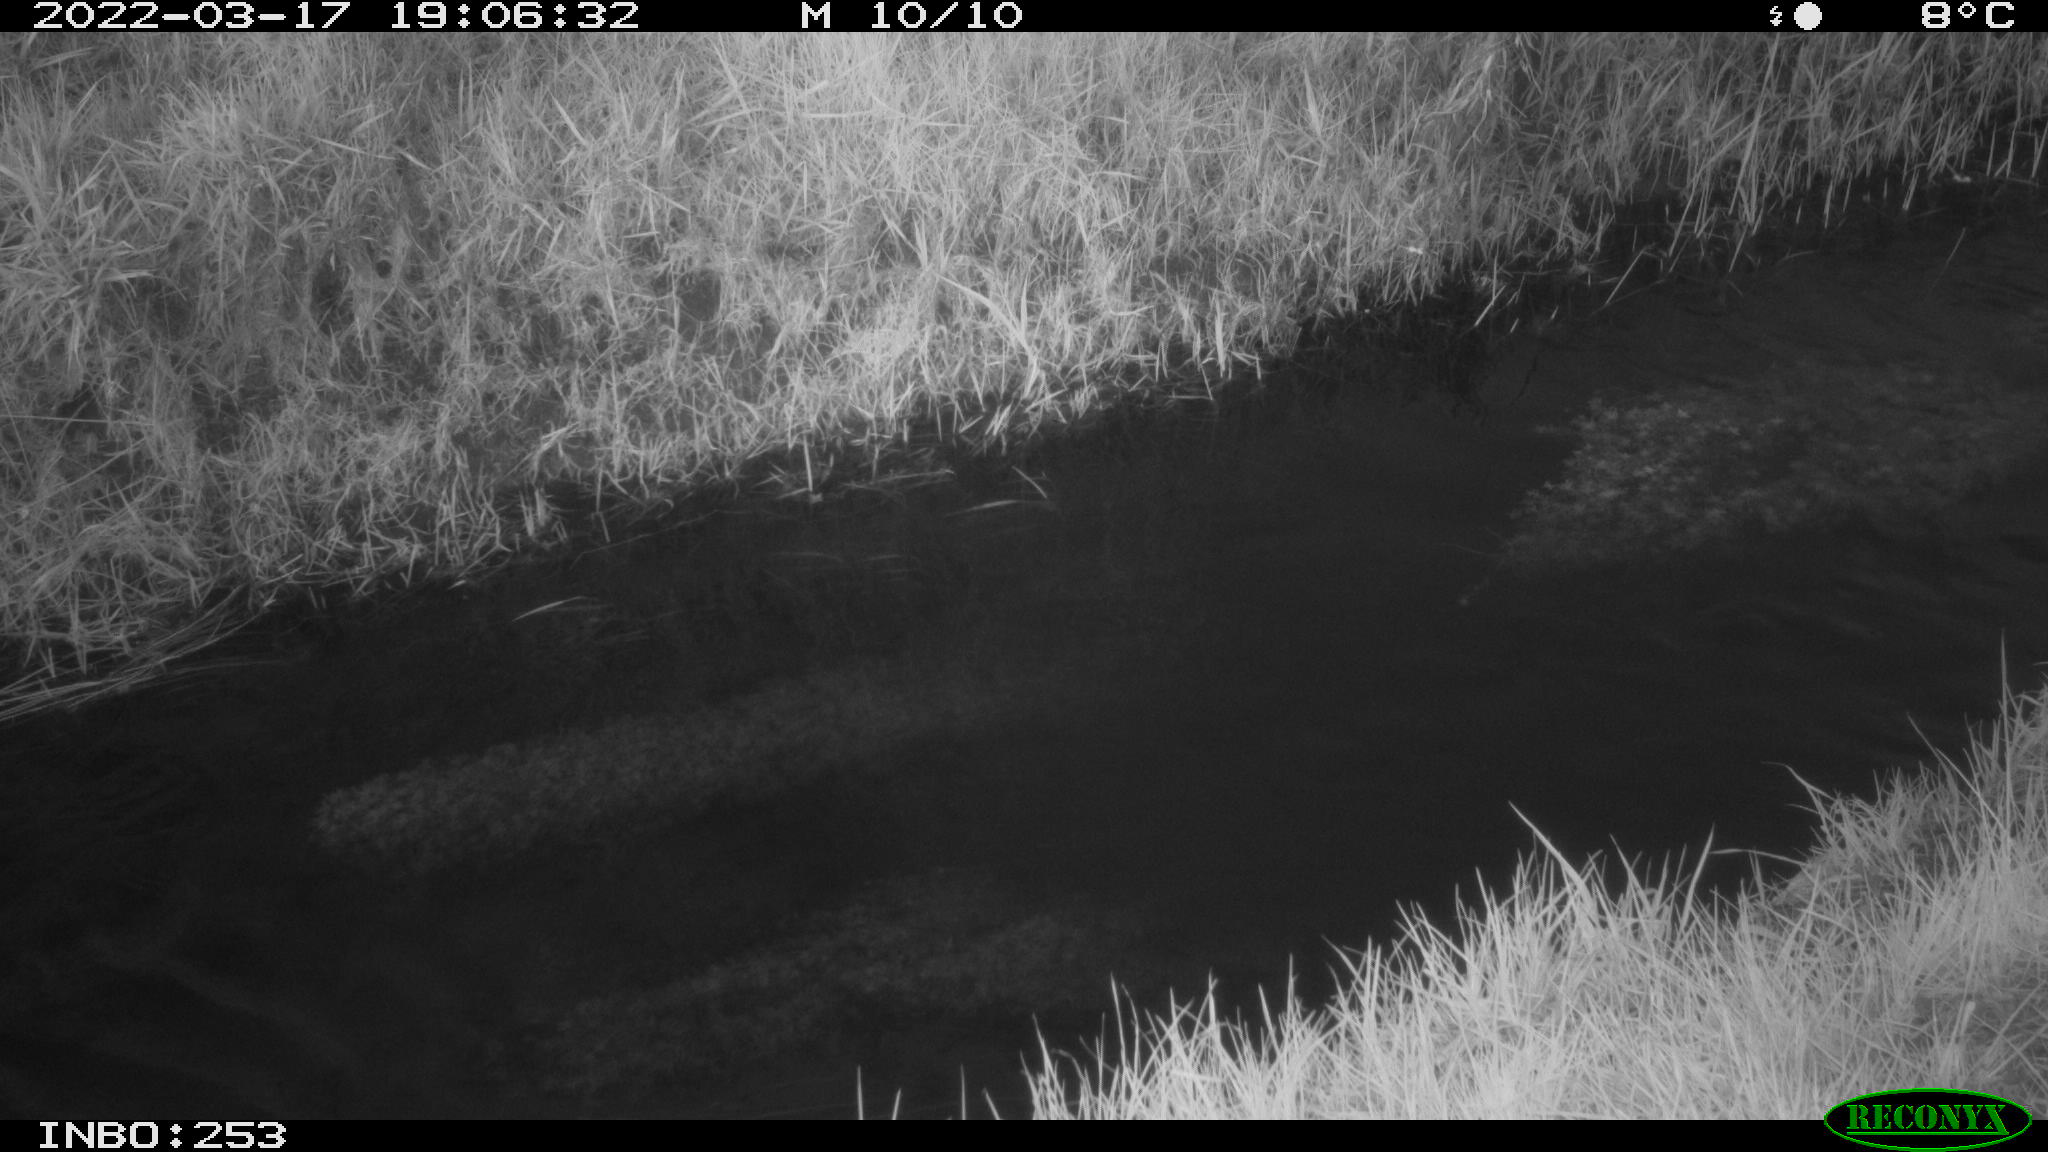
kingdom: Animalia
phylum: Chordata
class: Aves
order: Anseriformes
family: Anatidae
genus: Anas
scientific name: Anas platyrhynchos
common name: Mallard
